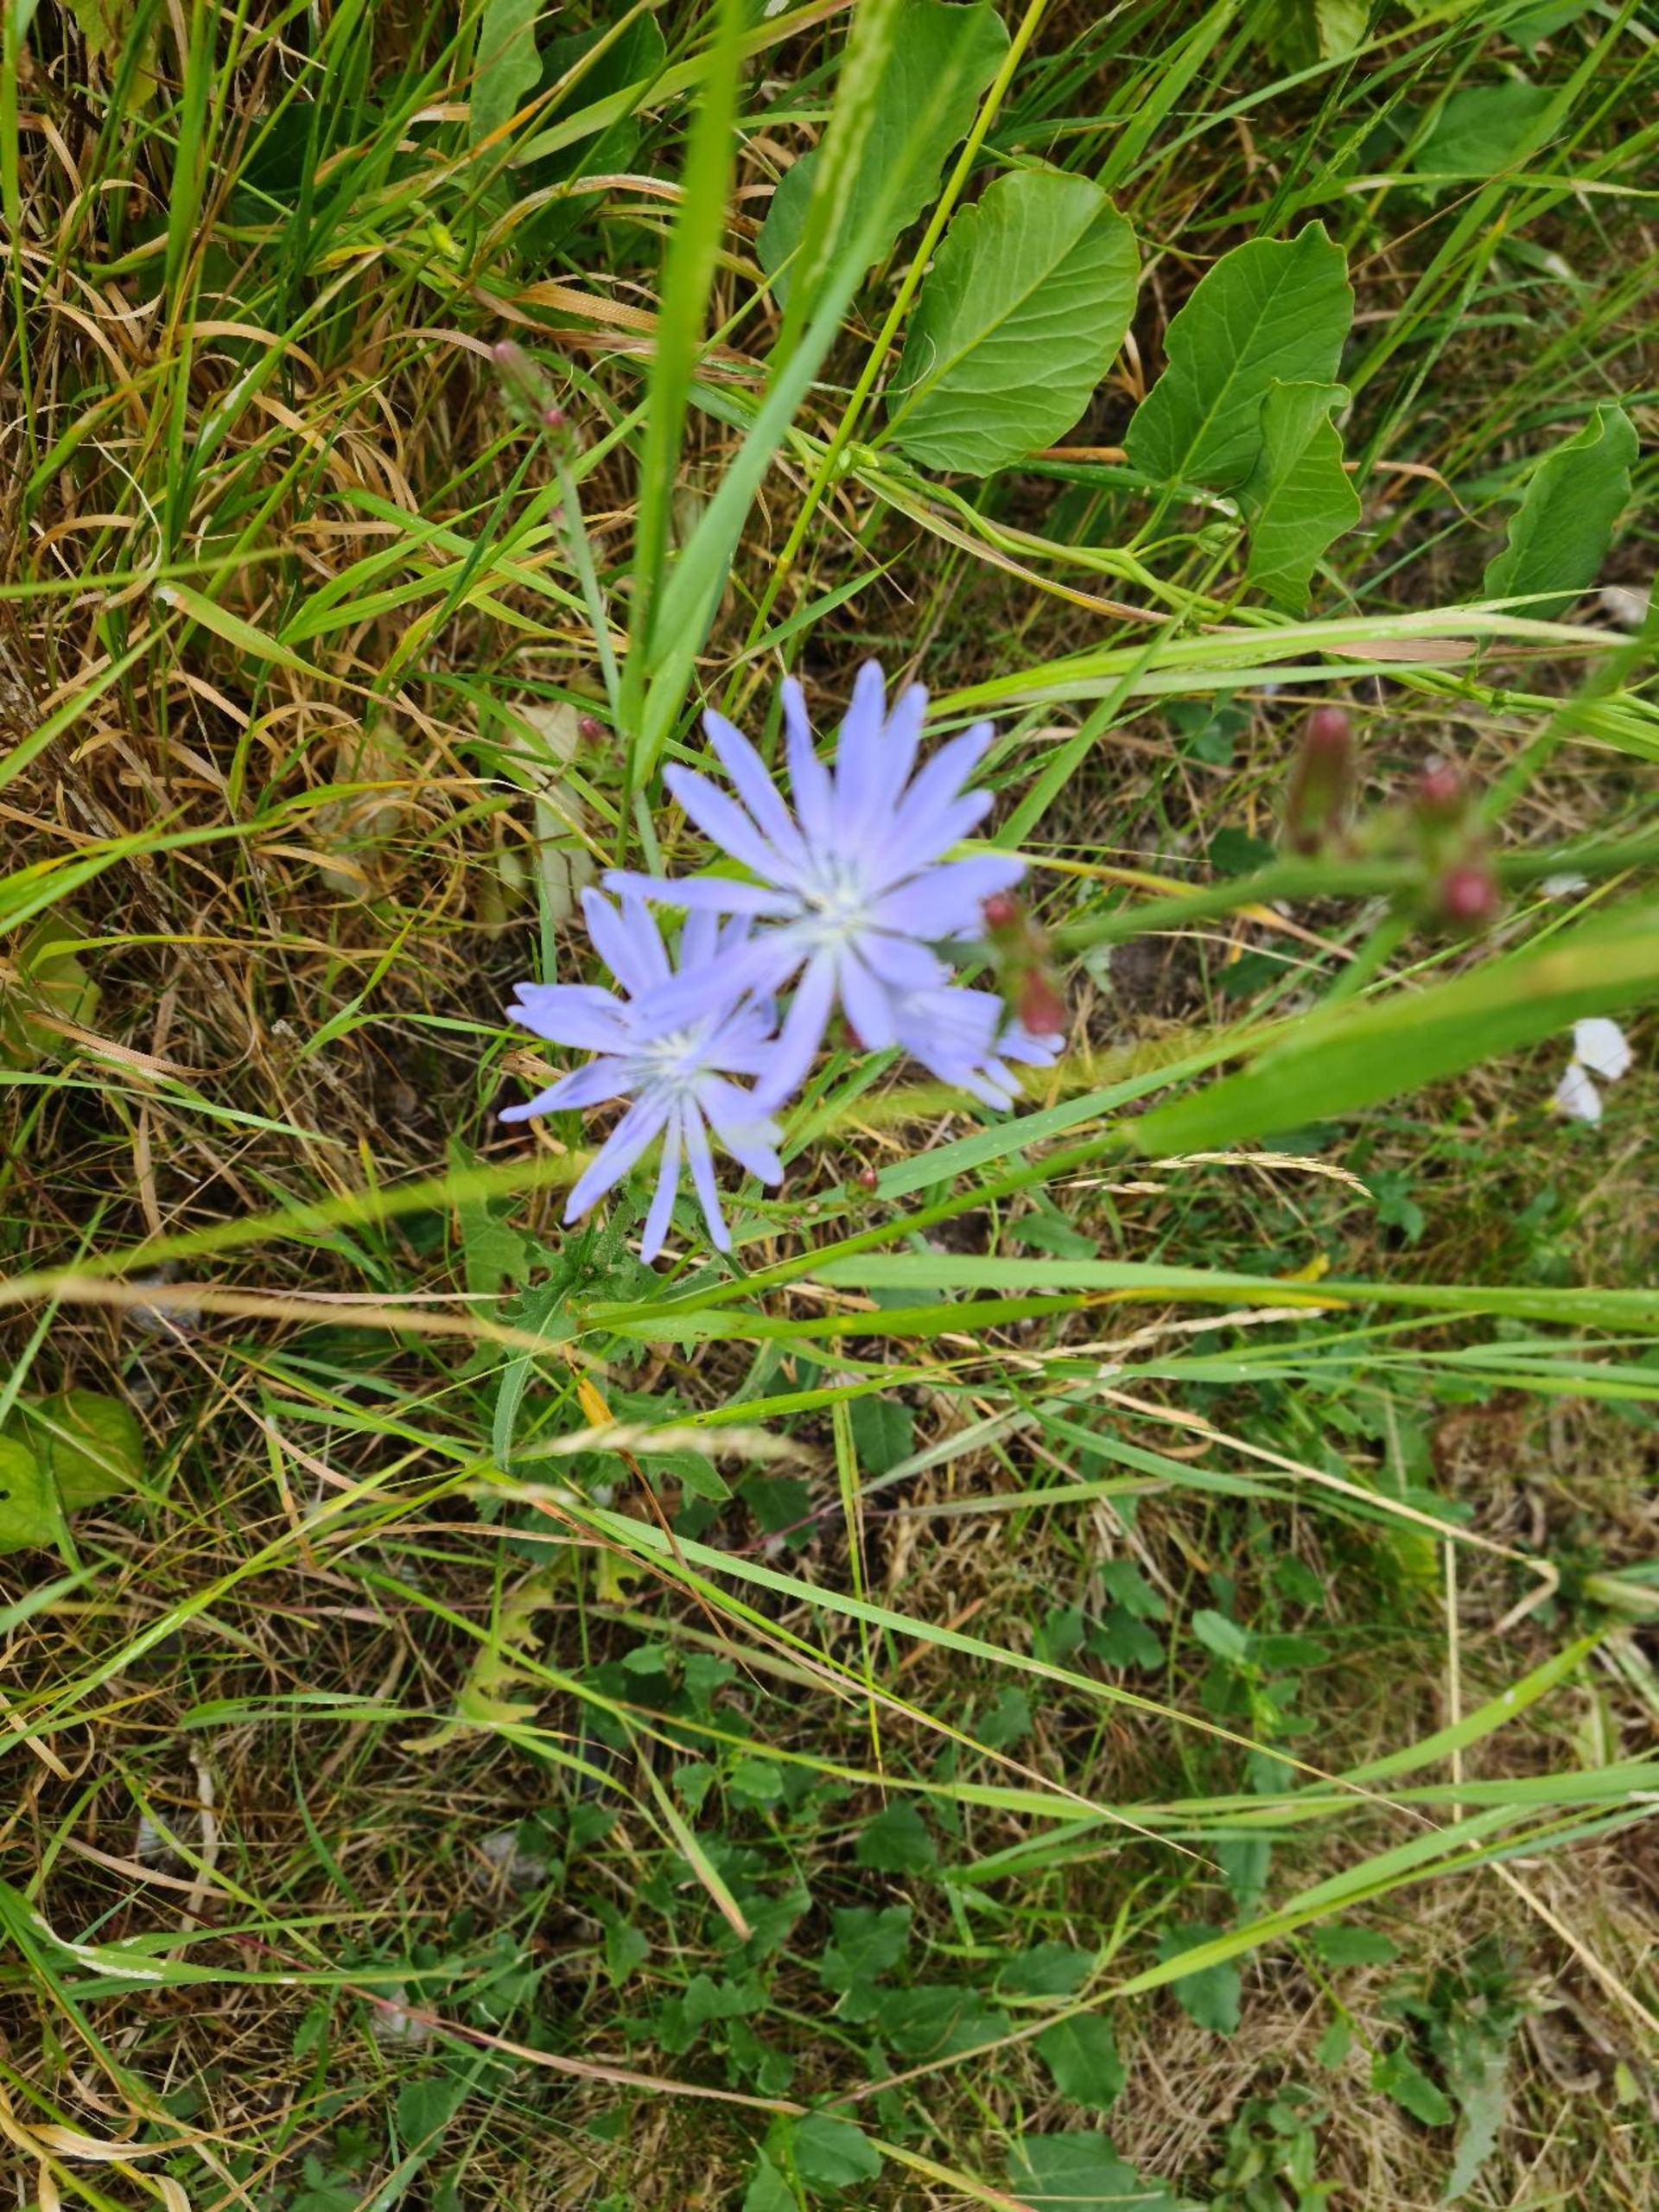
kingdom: Plantae
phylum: Tracheophyta
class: Magnoliopsida
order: Asterales
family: Asteraceae
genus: Cichorium
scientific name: Cichorium intybus
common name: Cikorie
